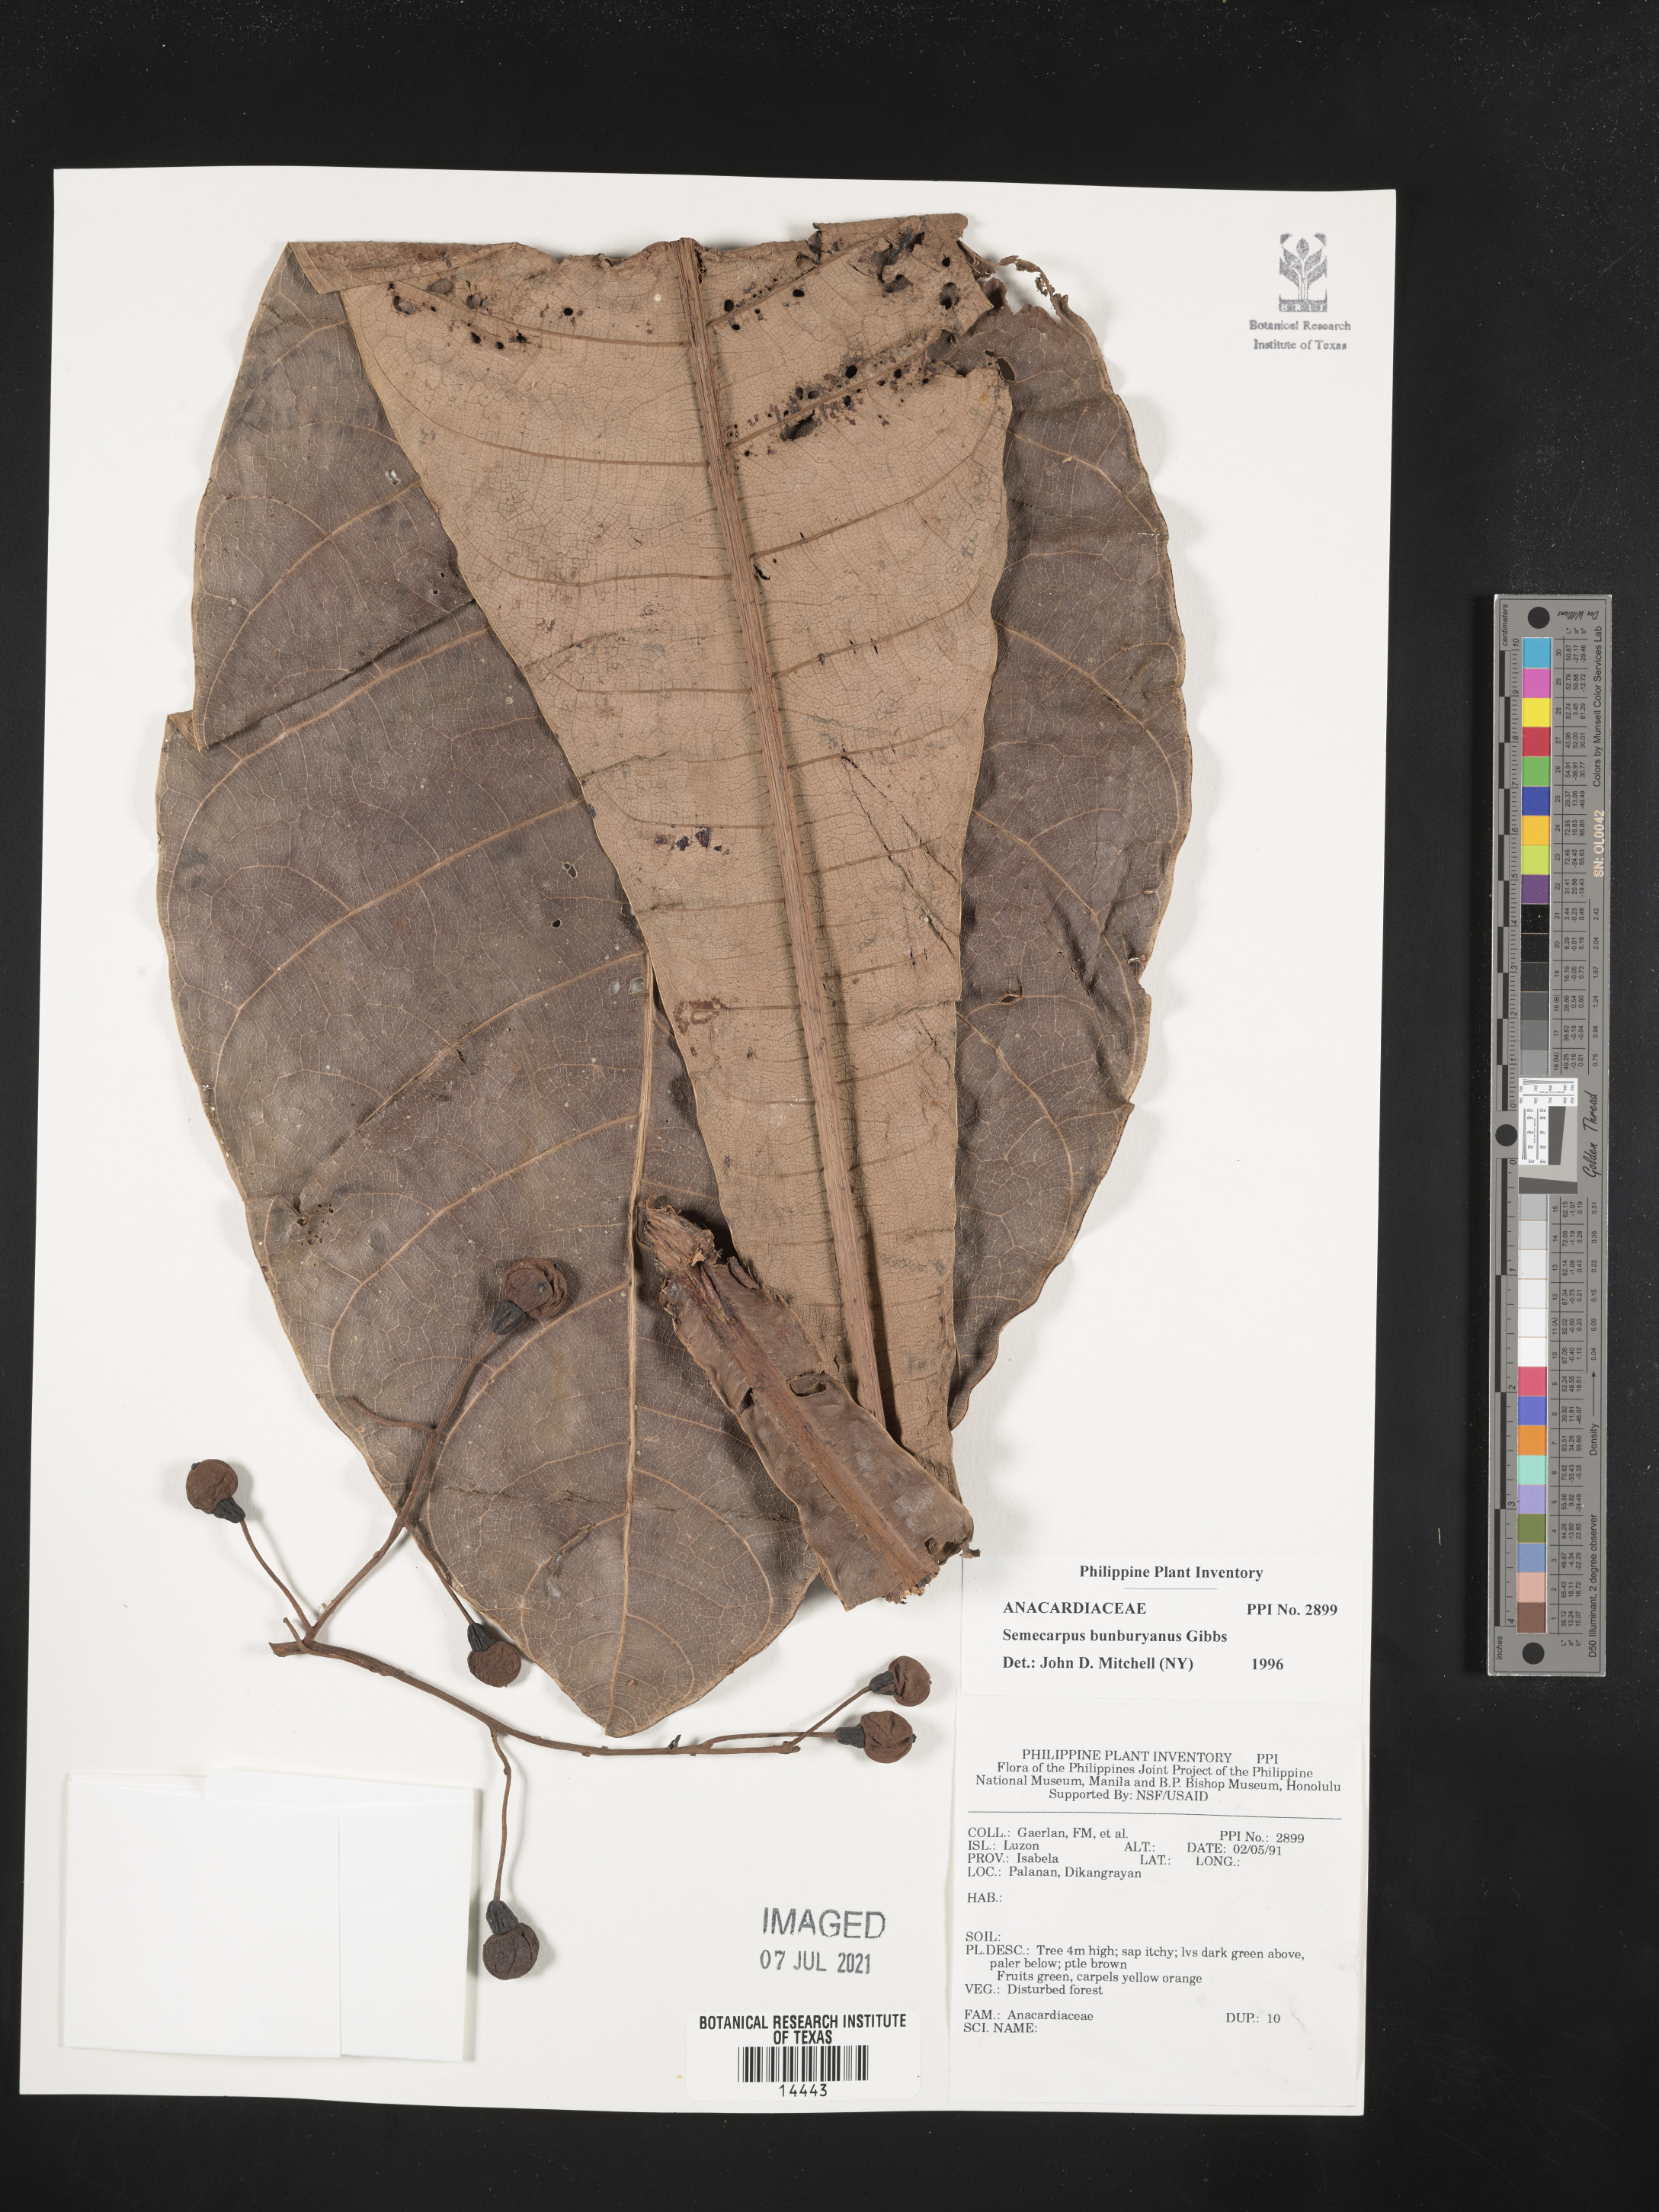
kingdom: Plantae
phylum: Tracheophyta
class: Magnoliopsida
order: Sapindales
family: Anacardiaceae
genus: Semecarpus
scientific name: Semecarpus bunburyanus
